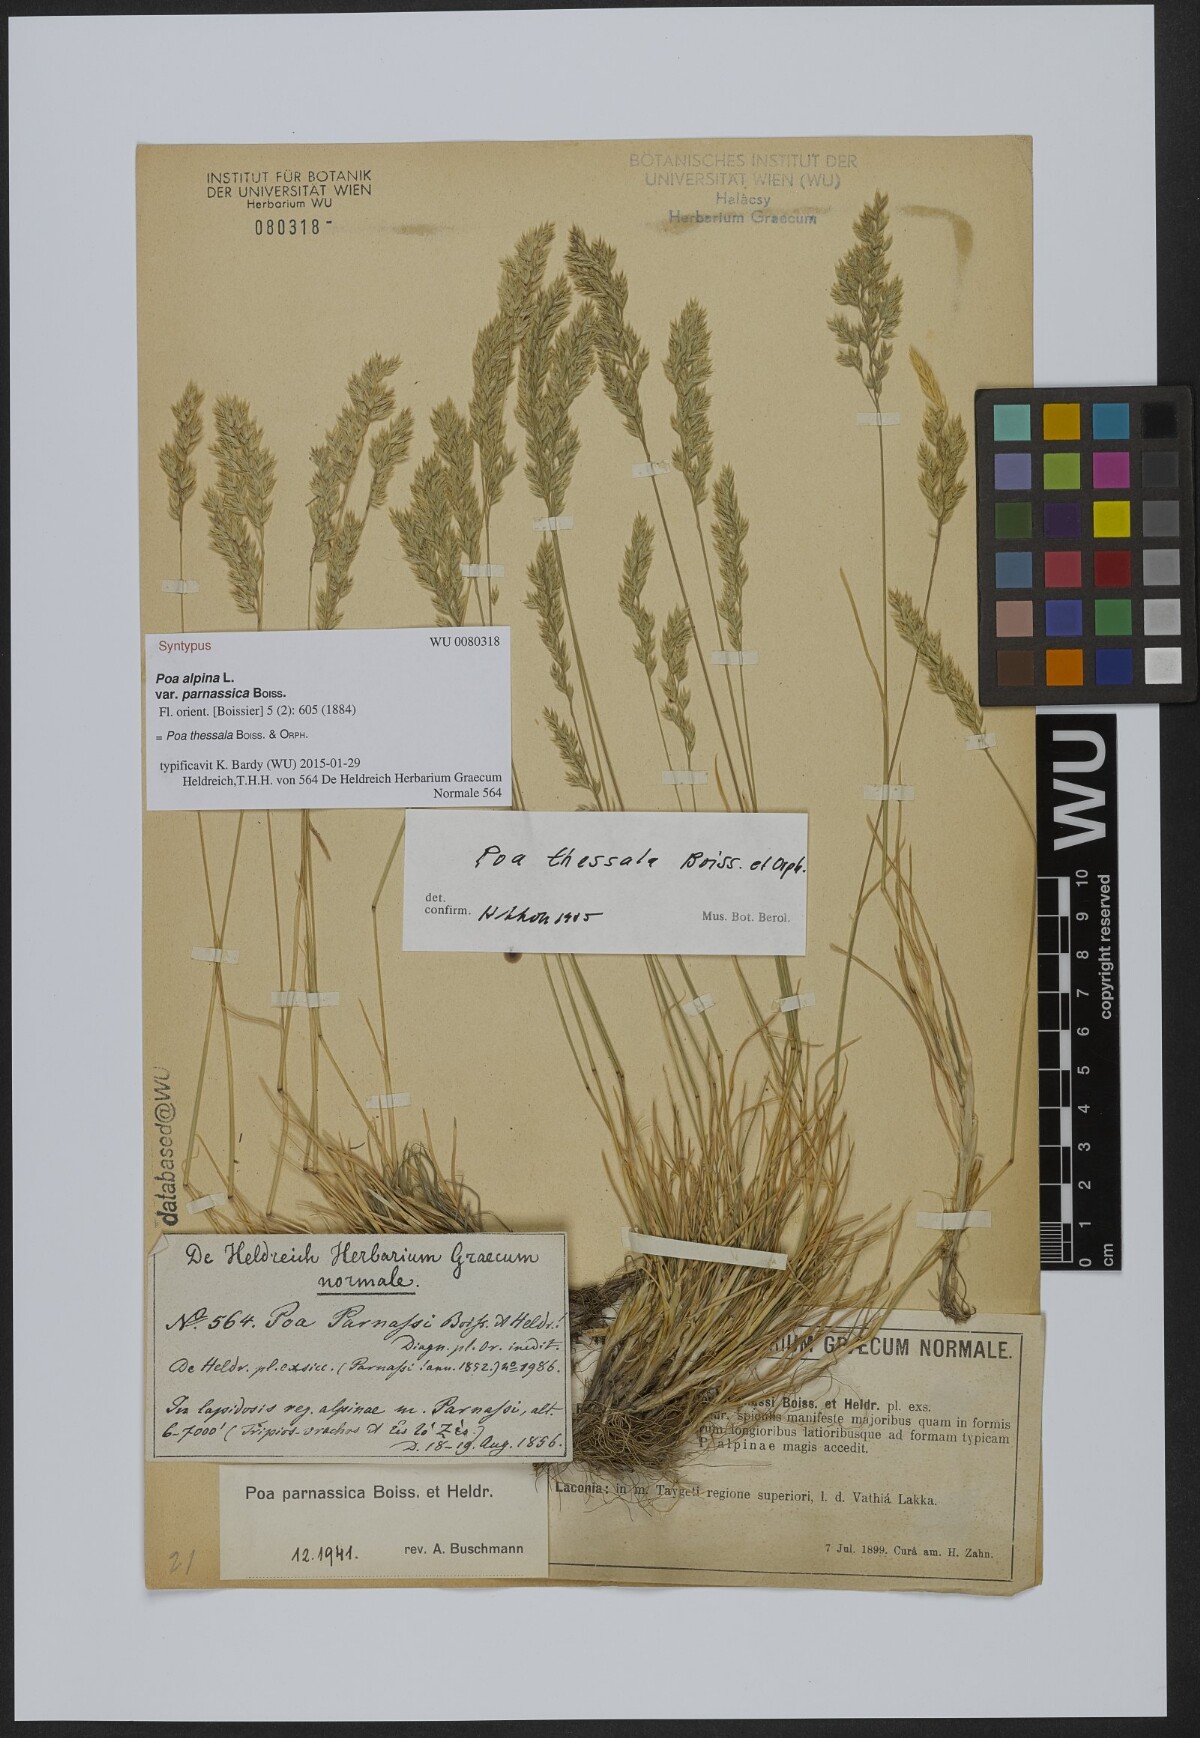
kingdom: Plantae
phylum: Tracheophyta
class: Liliopsida
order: Poales
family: Poaceae
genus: Poa
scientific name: Poa pumila
